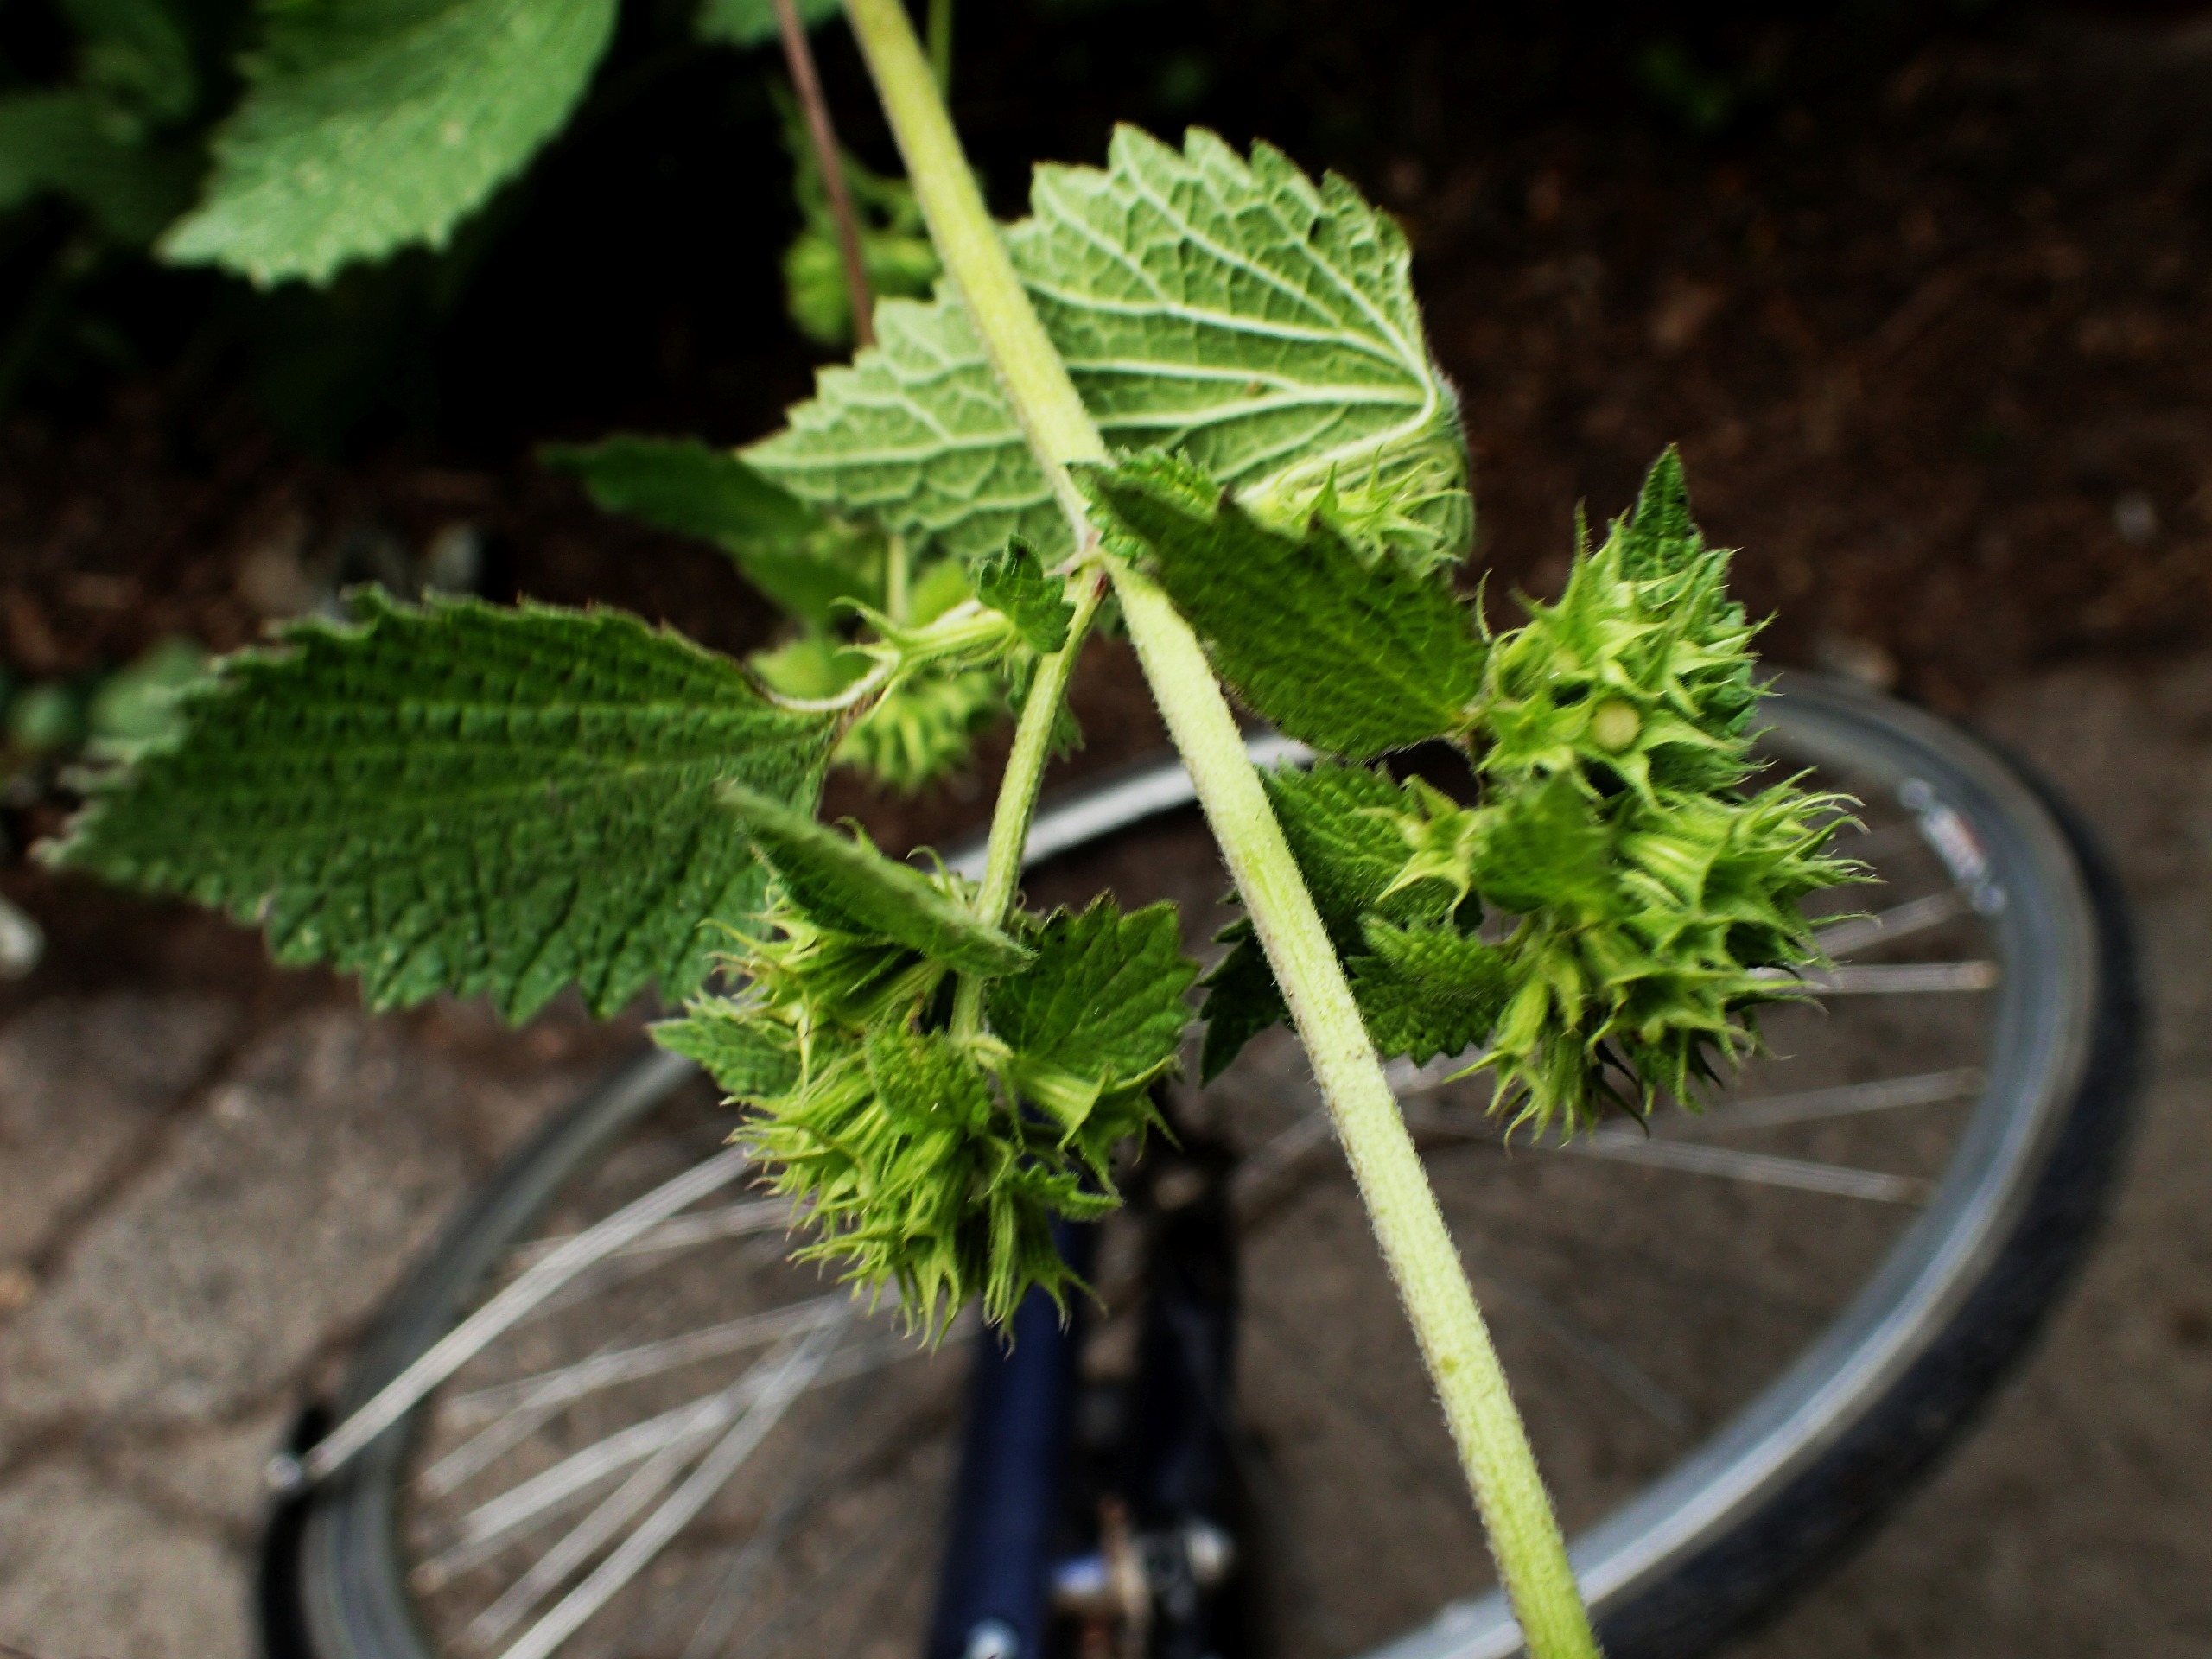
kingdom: Plantae
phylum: Tracheophyta
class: Magnoliopsida
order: Lamiales
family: Lamiaceae
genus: Ballota
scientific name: Ballota nigra
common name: Tandbæger
